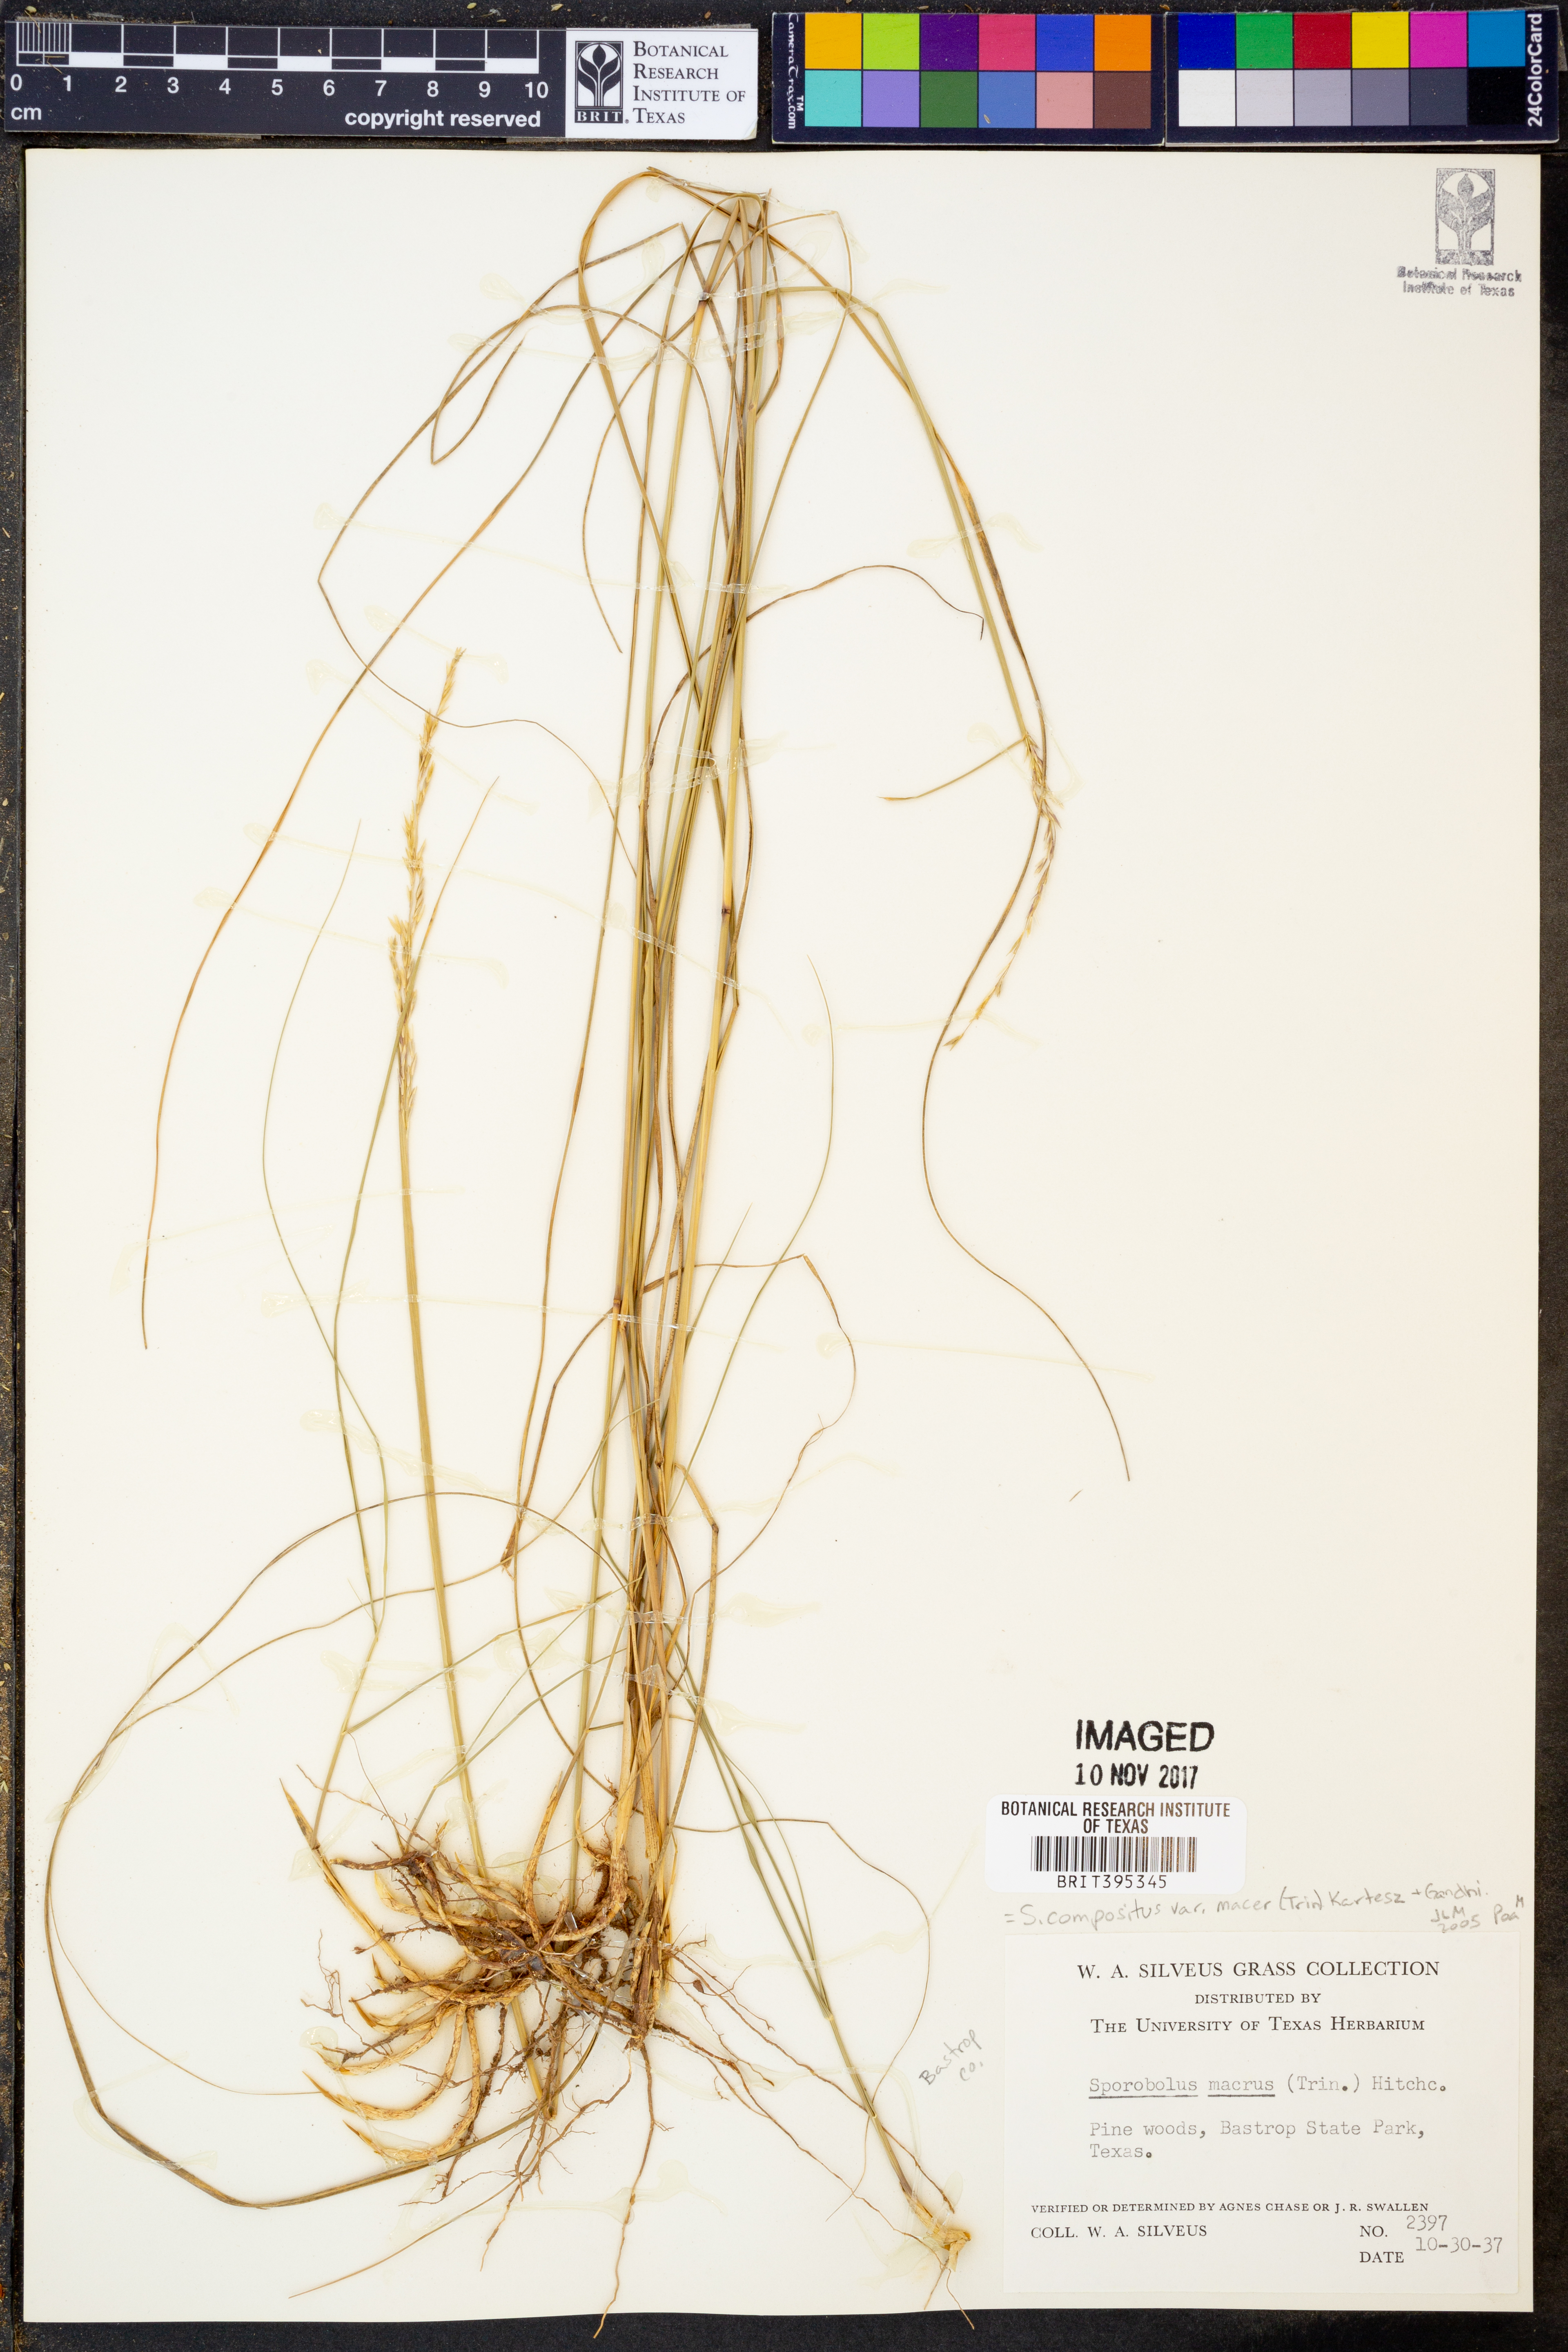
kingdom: Plantae
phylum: Tracheophyta
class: Liliopsida
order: Poales
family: Poaceae
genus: Sporobolus
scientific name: Sporobolus macer
